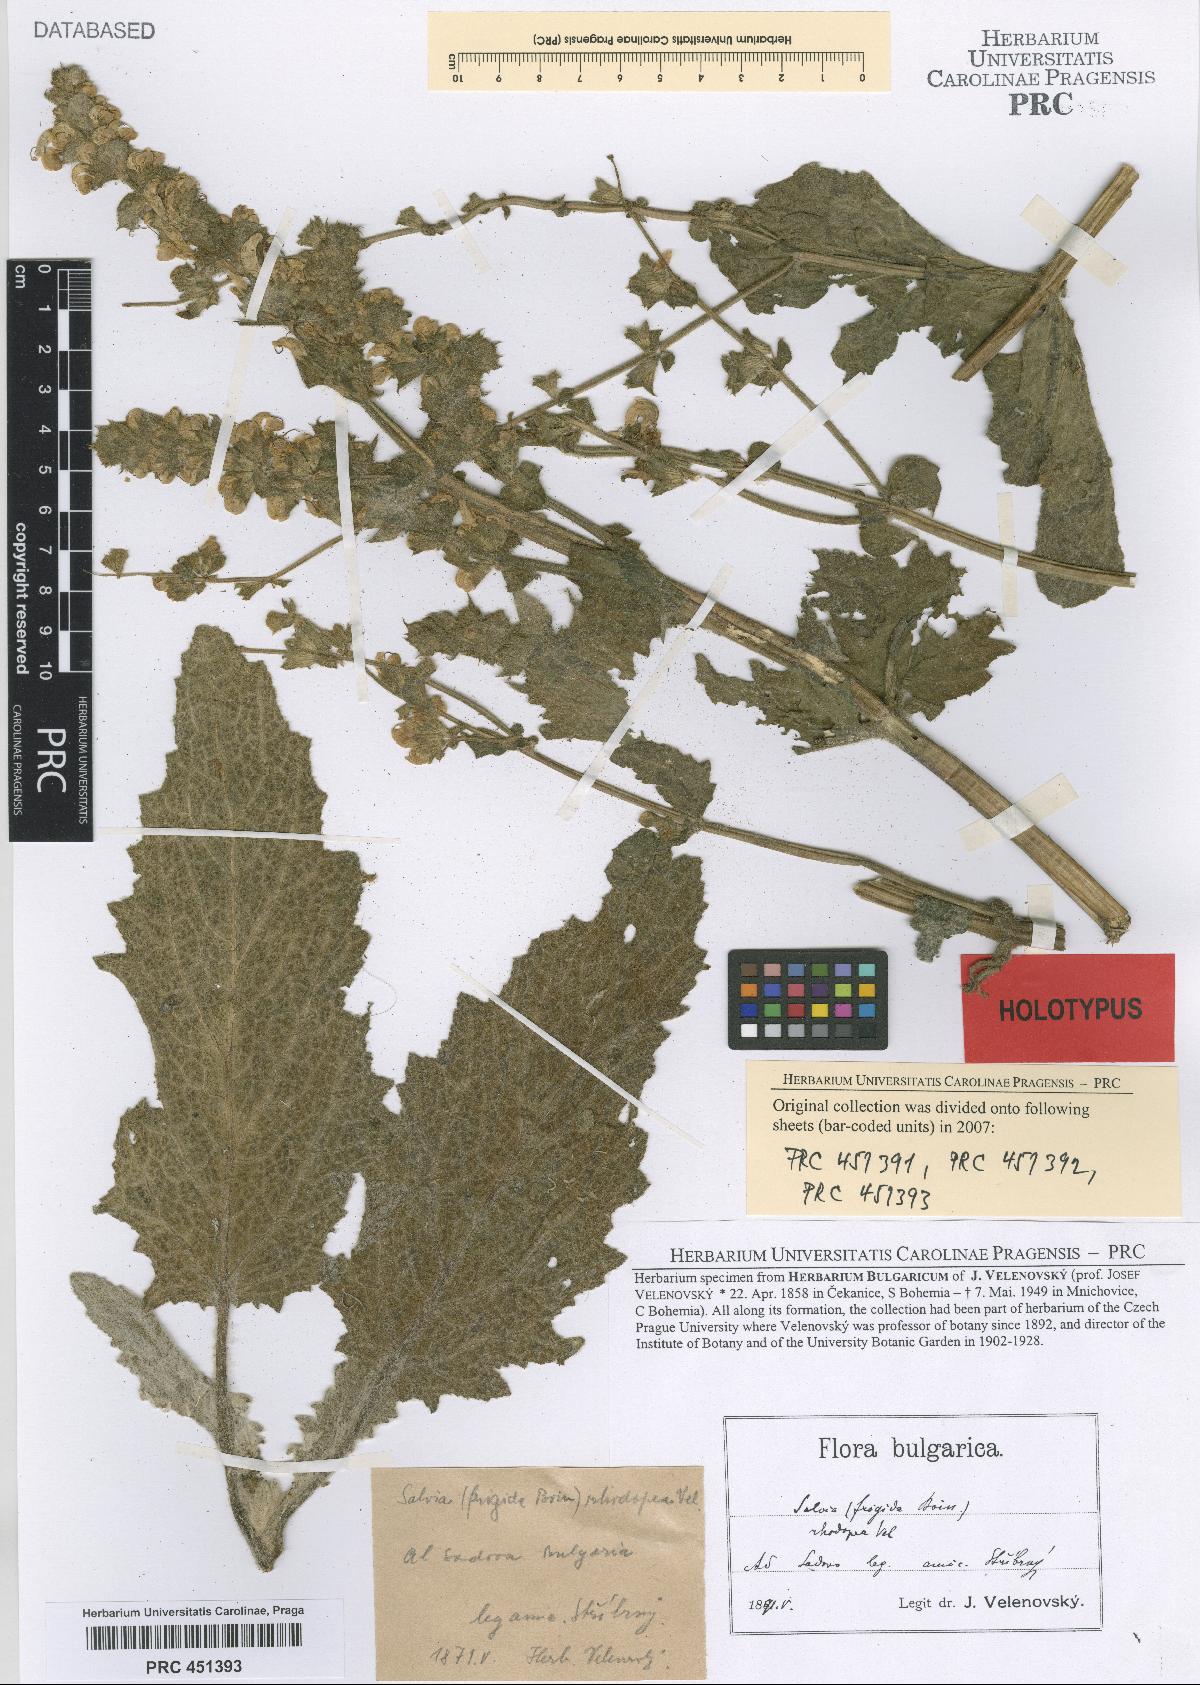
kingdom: Plantae
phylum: Tracheophyta
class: Magnoliopsida
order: Lamiales
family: Lamiaceae
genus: Salvia
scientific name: Salvia argentea
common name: Silver sage
